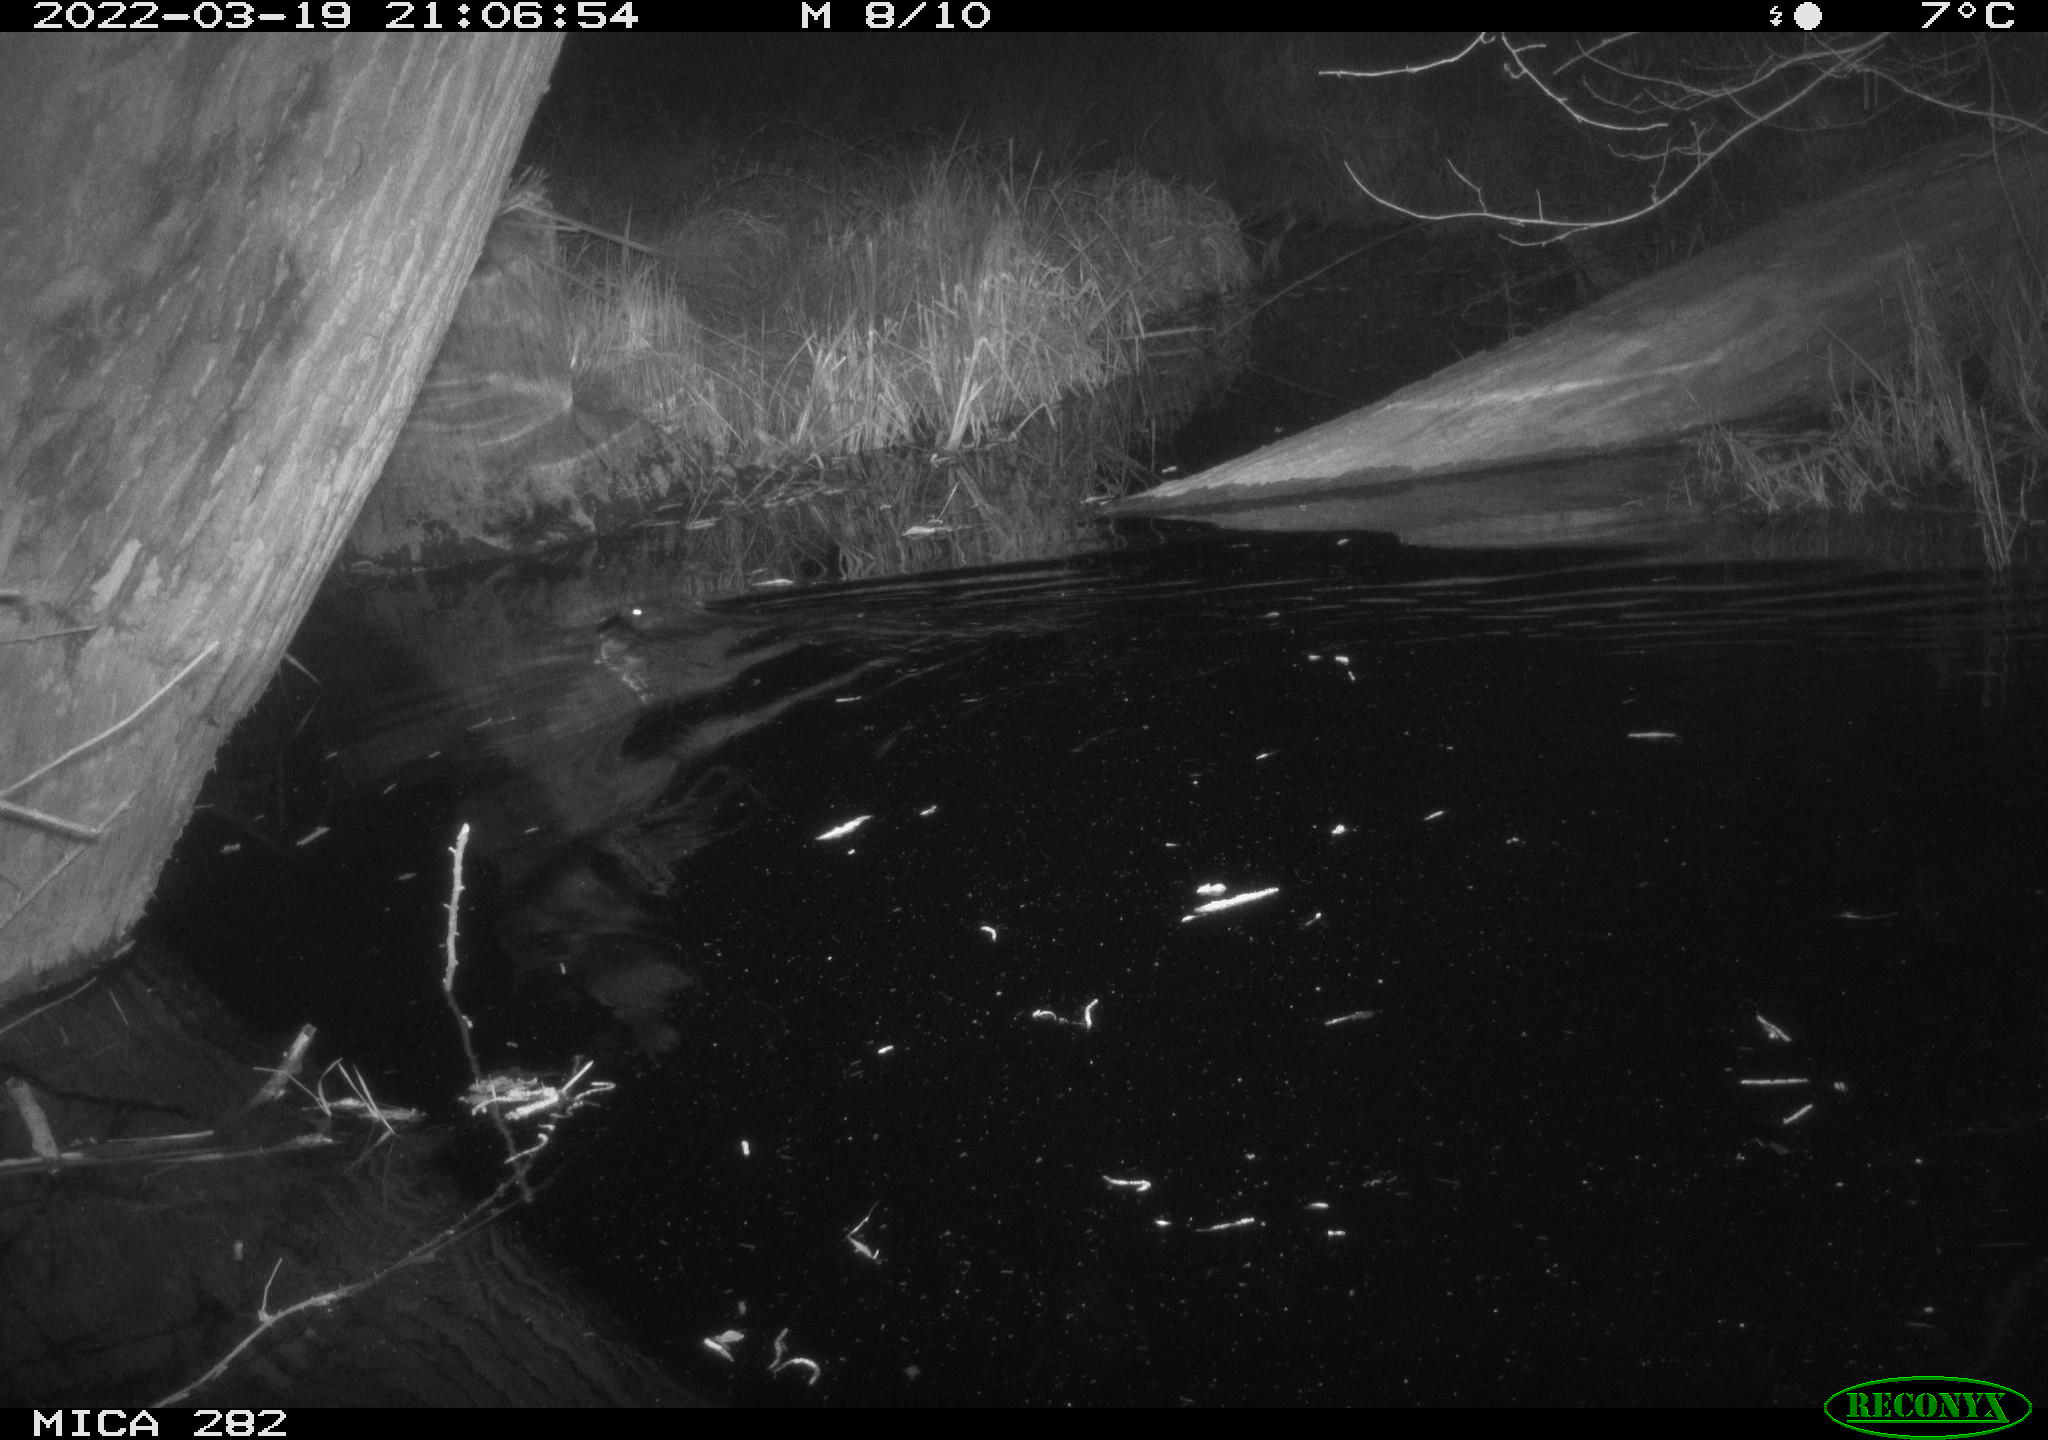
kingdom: Animalia
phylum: Chordata
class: Mammalia
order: Rodentia
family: Castoridae
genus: Castor
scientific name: Castor fiber
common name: Eurasian beaver
